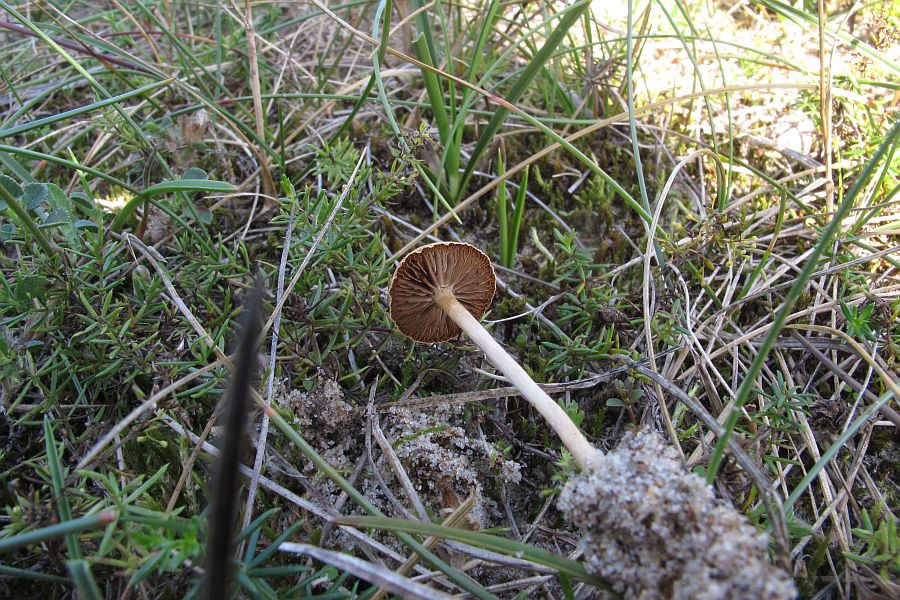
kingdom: Fungi
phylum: Basidiomycota
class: Agaricomycetes
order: Agaricales
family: Strophariaceae
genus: Agrocybe
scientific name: Agrocybe pediades
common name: almindelig agerhat
